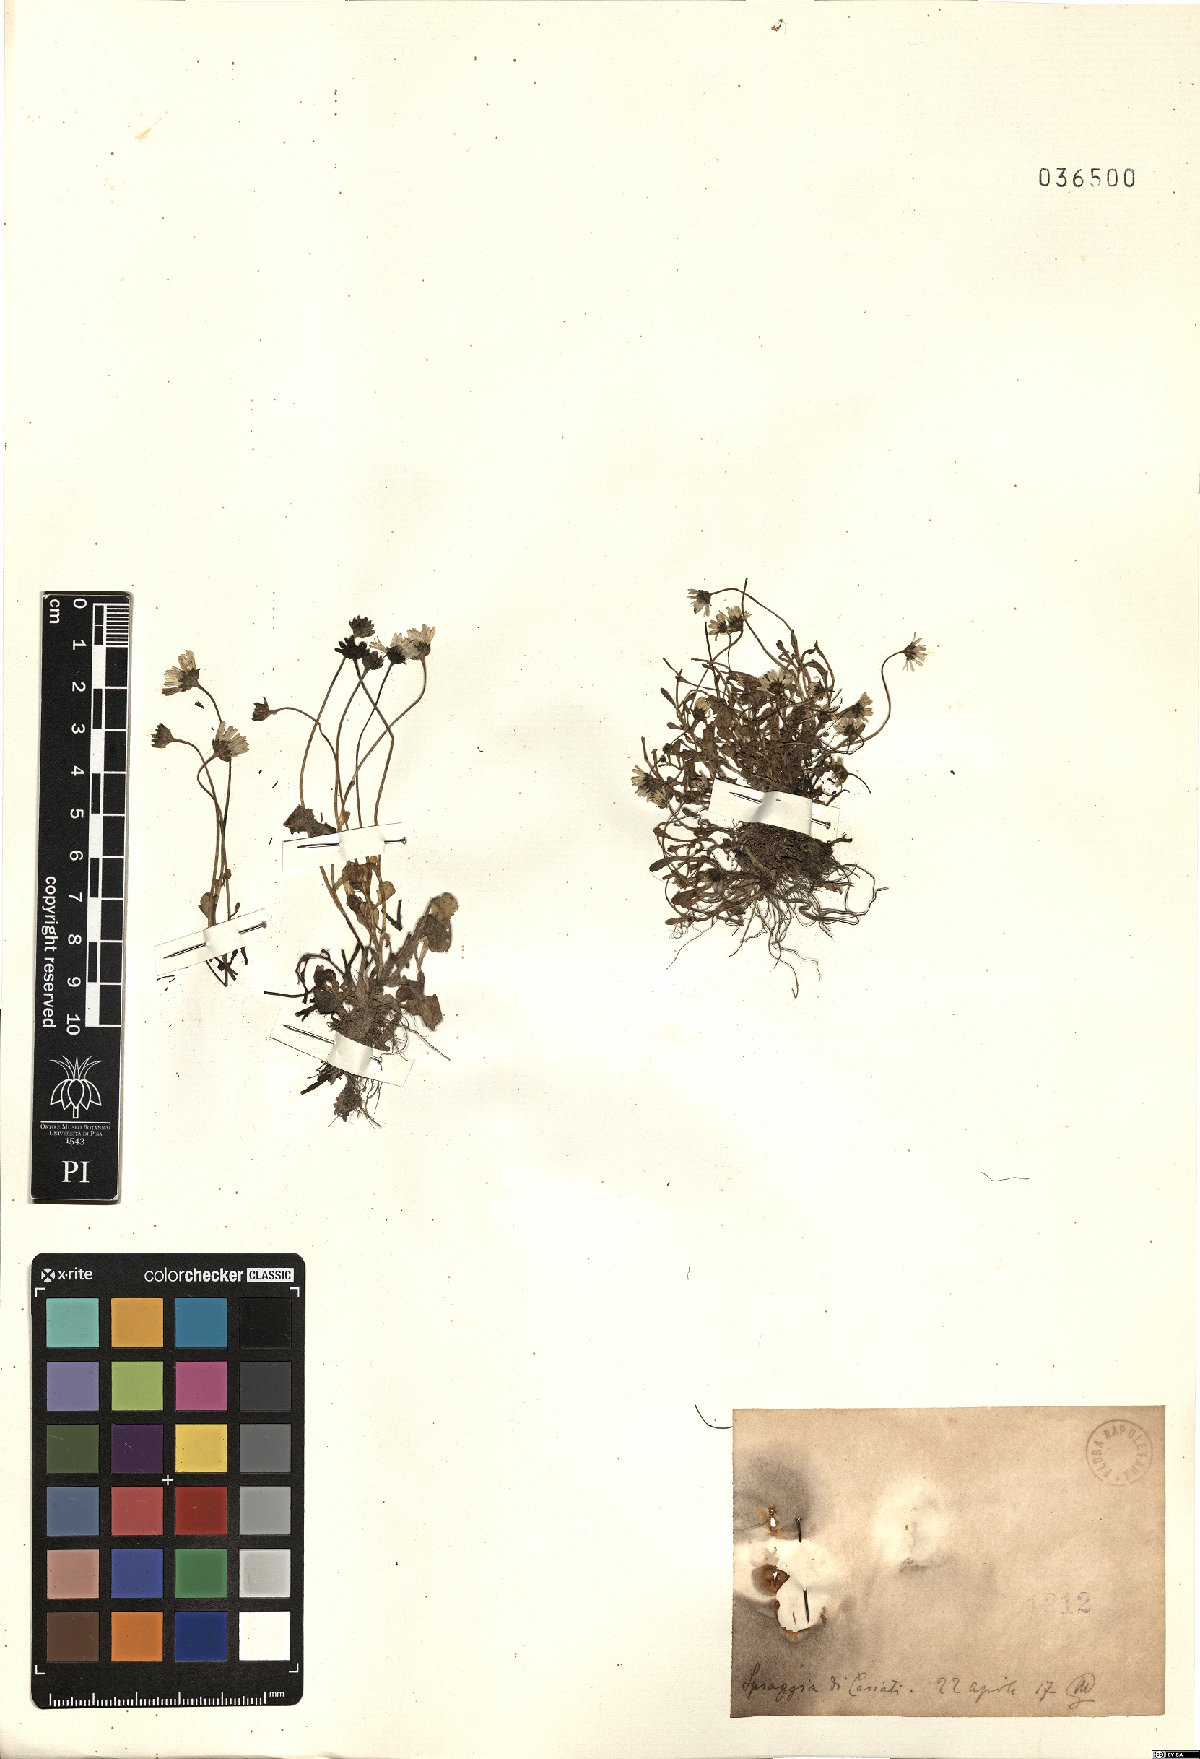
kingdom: Plantae
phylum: Tracheophyta
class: Magnoliopsida
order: Asterales
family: Asteraceae
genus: Bellis
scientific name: Bellis
